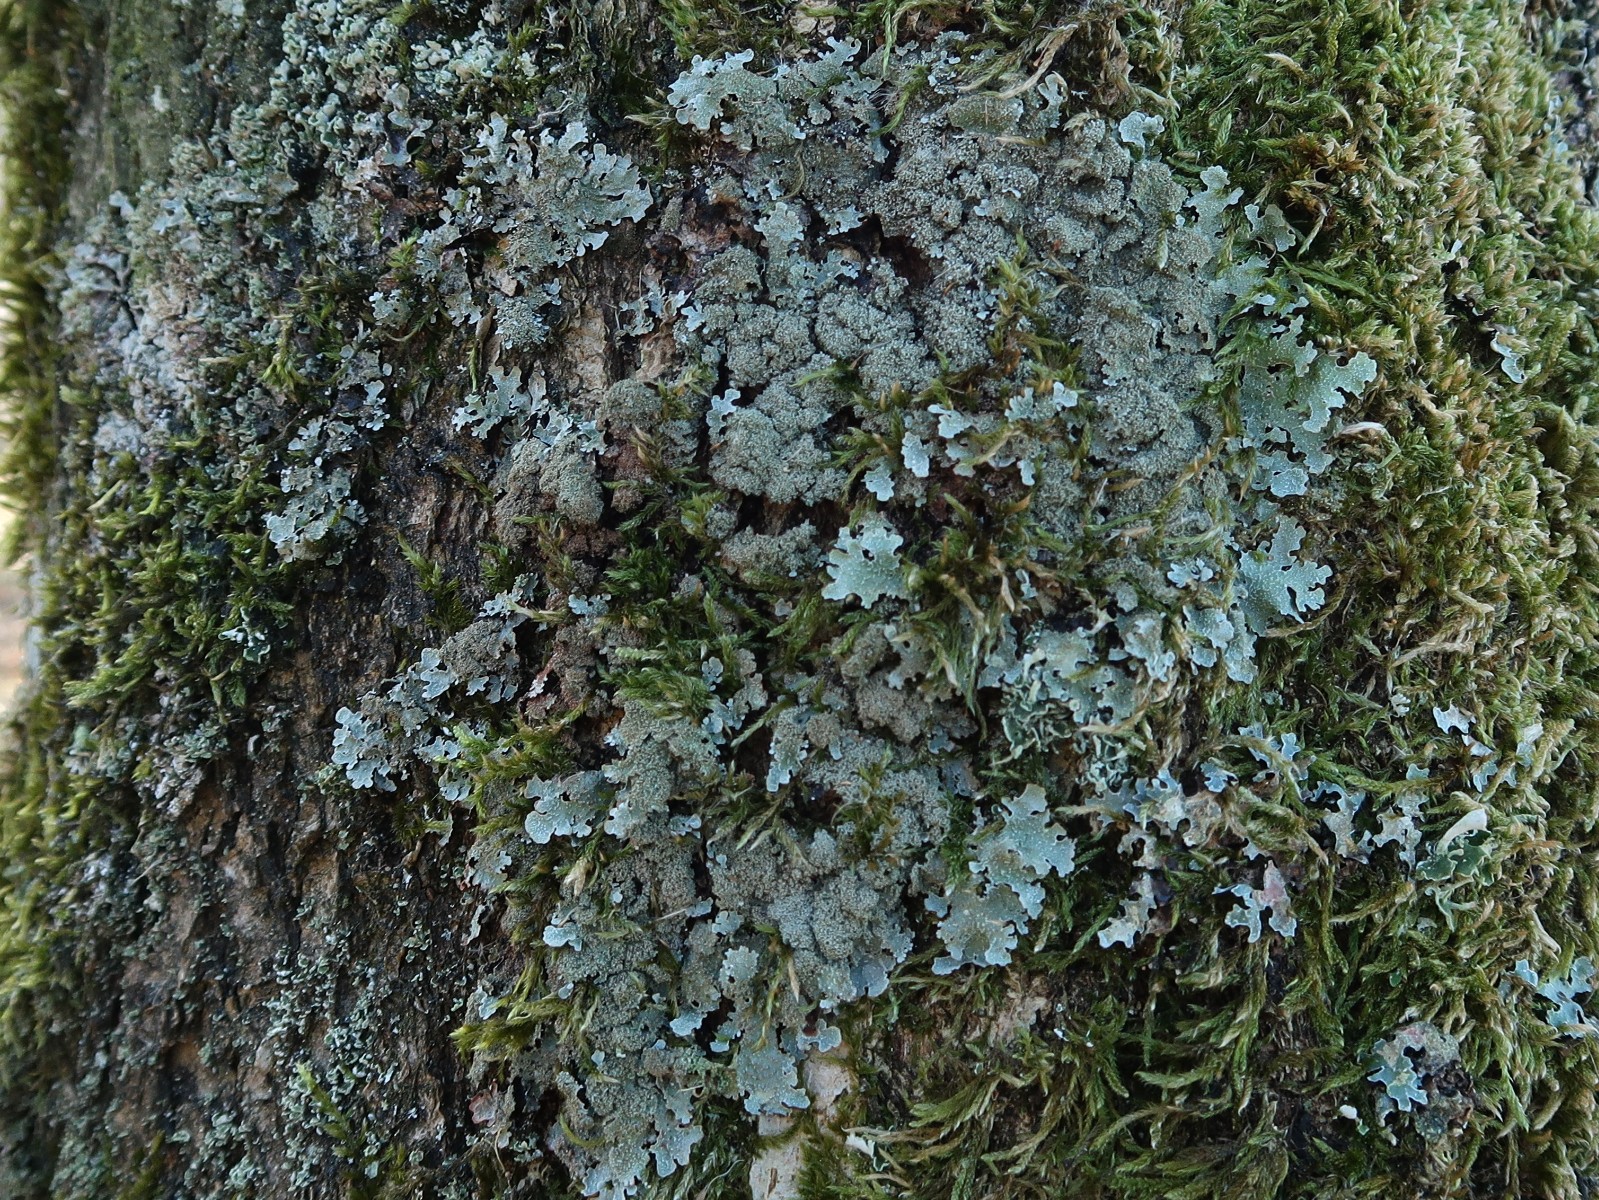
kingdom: Fungi
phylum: Ascomycota
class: Lecanoromycetes
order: Lecanorales
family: Parmeliaceae
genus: Parmelia
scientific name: Parmelia ernstiae
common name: rimstift-skållav
